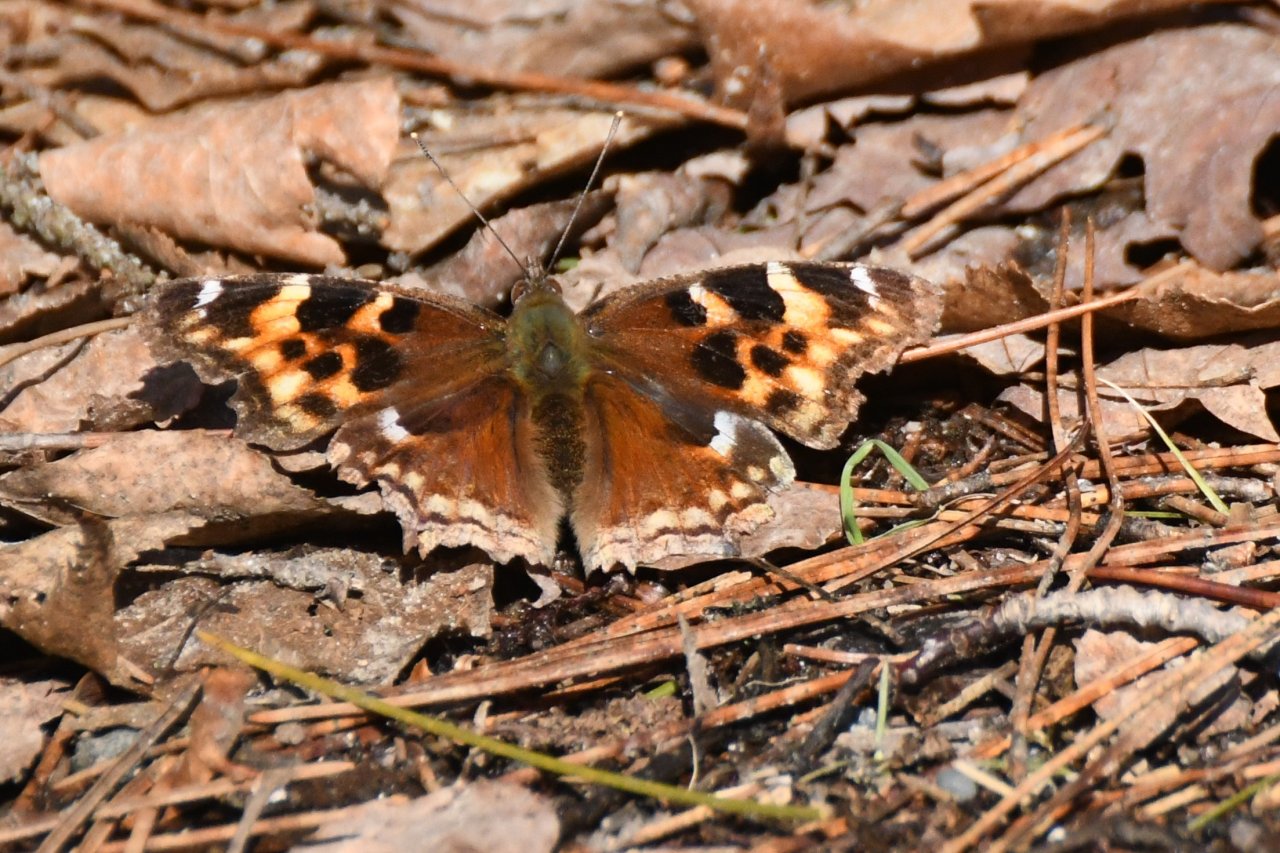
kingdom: Animalia
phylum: Arthropoda
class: Insecta
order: Lepidoptera
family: Nymphalidae
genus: Polygonia
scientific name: Polygonia vaualbum
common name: Compton Tortoiseshell
